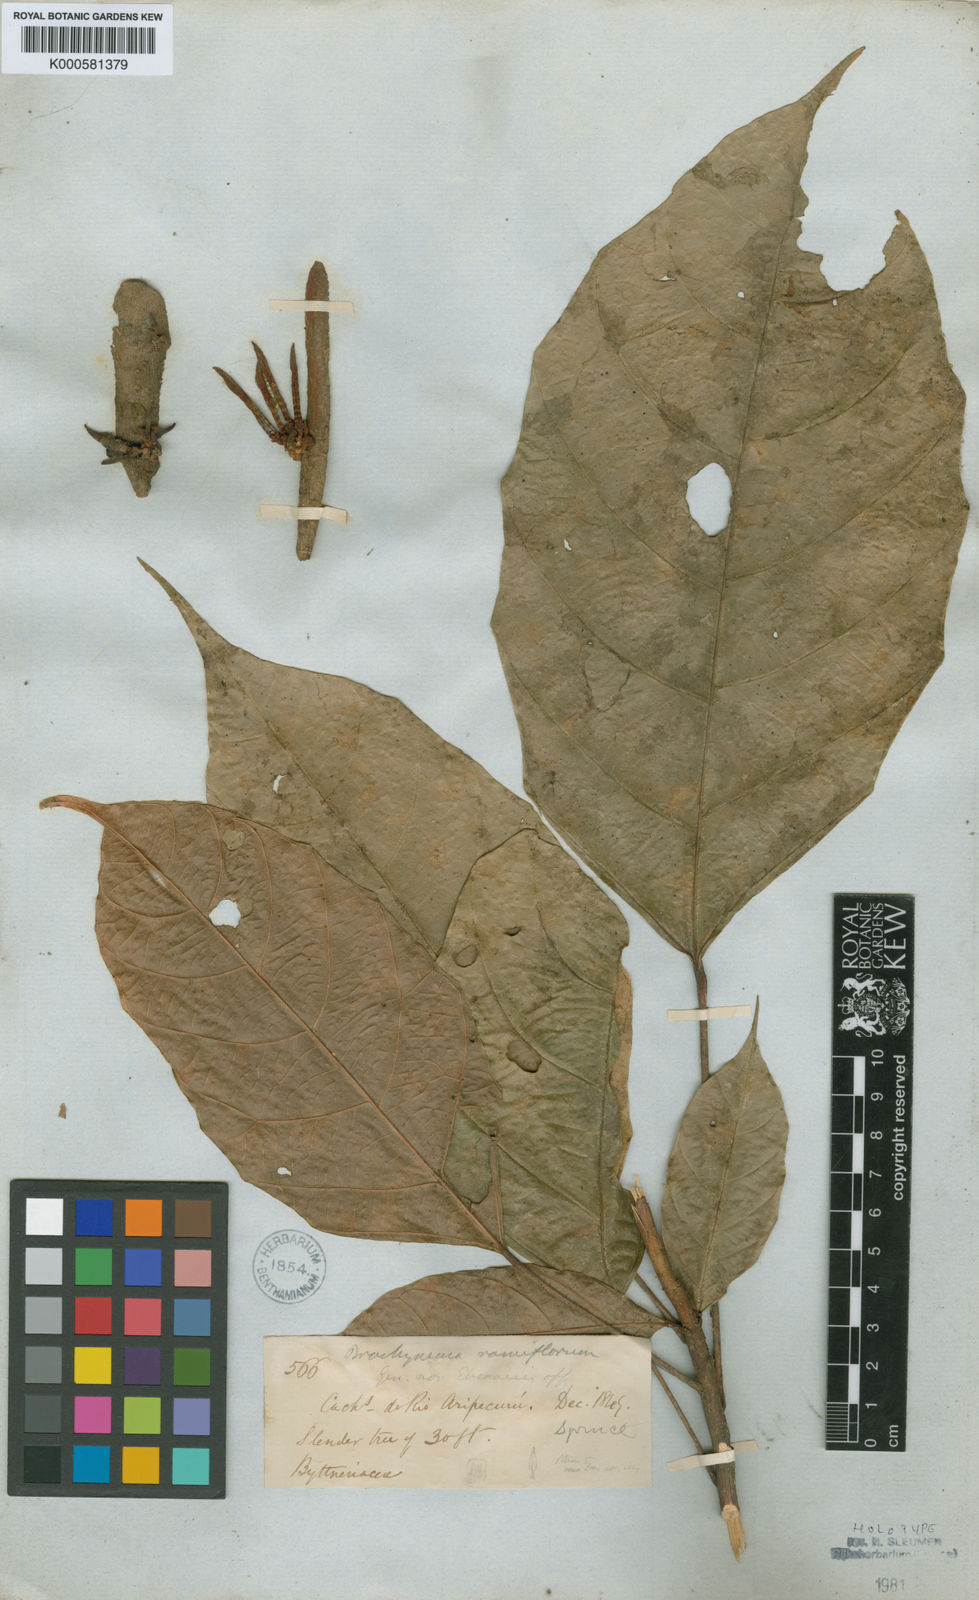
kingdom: Plantae
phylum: Tracheophyta
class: Magnoliopsida
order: Santalales
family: Erythropalaceae
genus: Brachynema
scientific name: Brachynema ramiflorum
